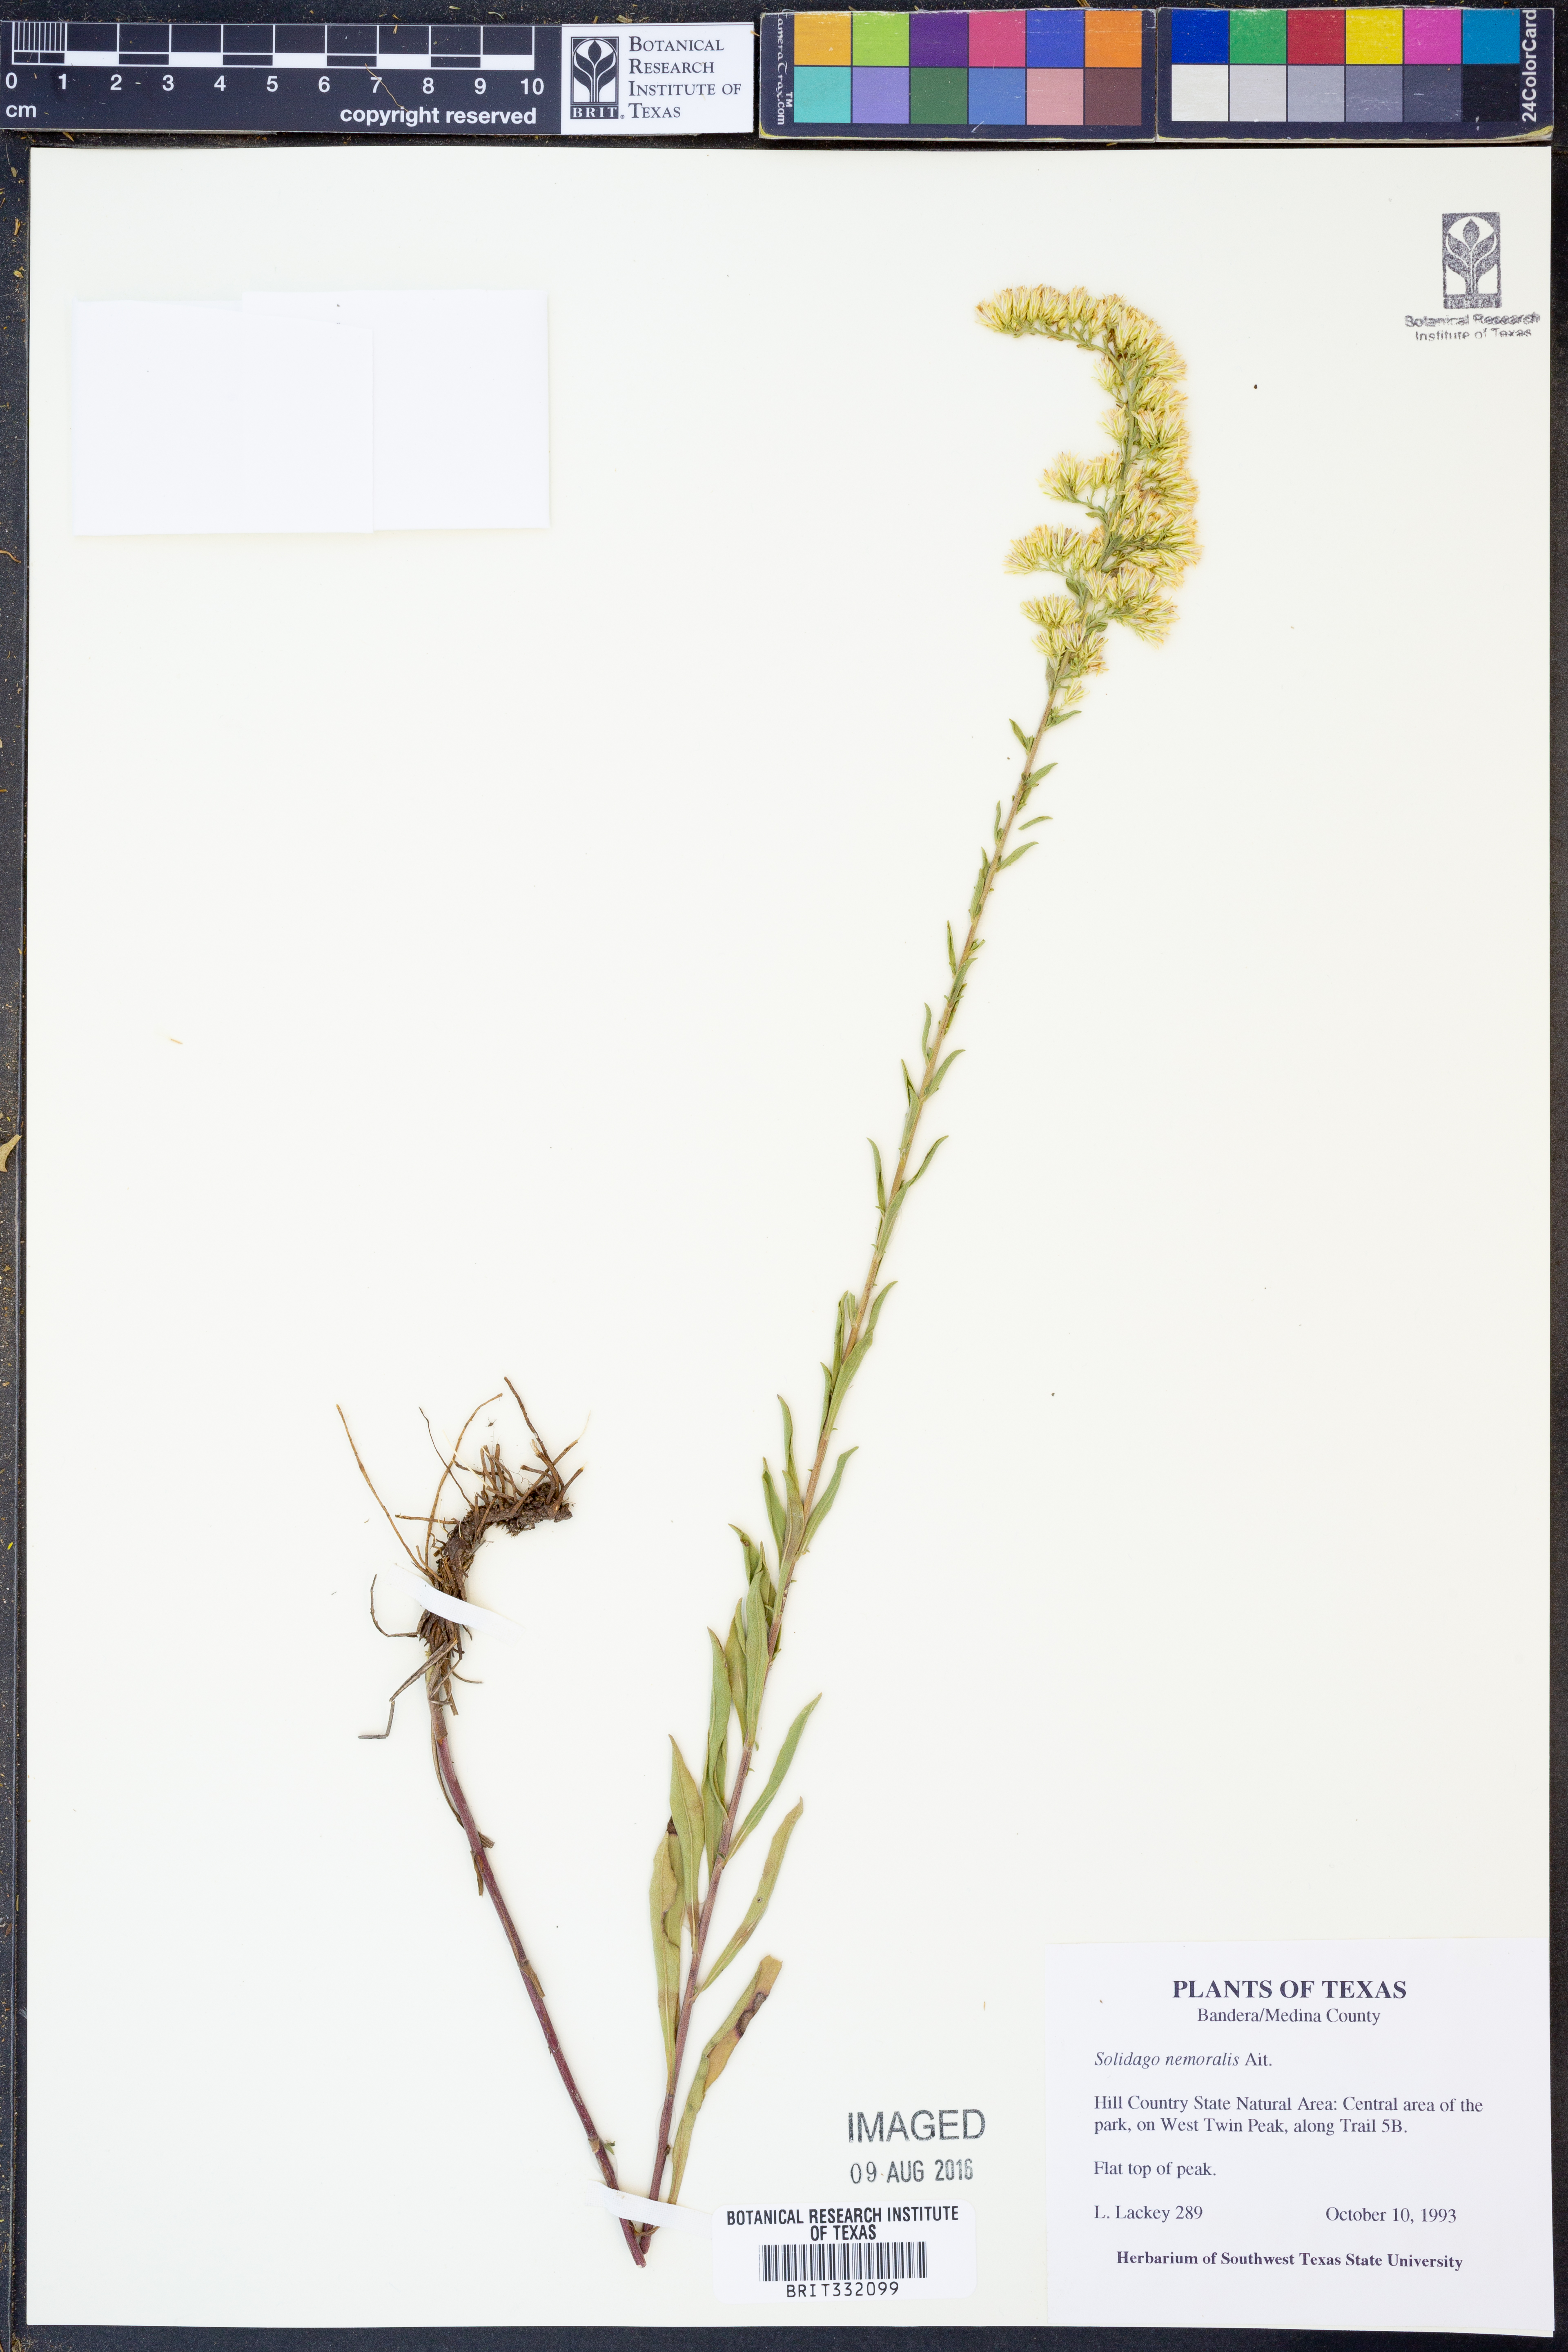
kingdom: Plantae
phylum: Tracheophyta
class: Magnoliopsida
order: Asterales
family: Asteraceae
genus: Solidago
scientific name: Solidago nemoralis
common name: Grey goldenrod
